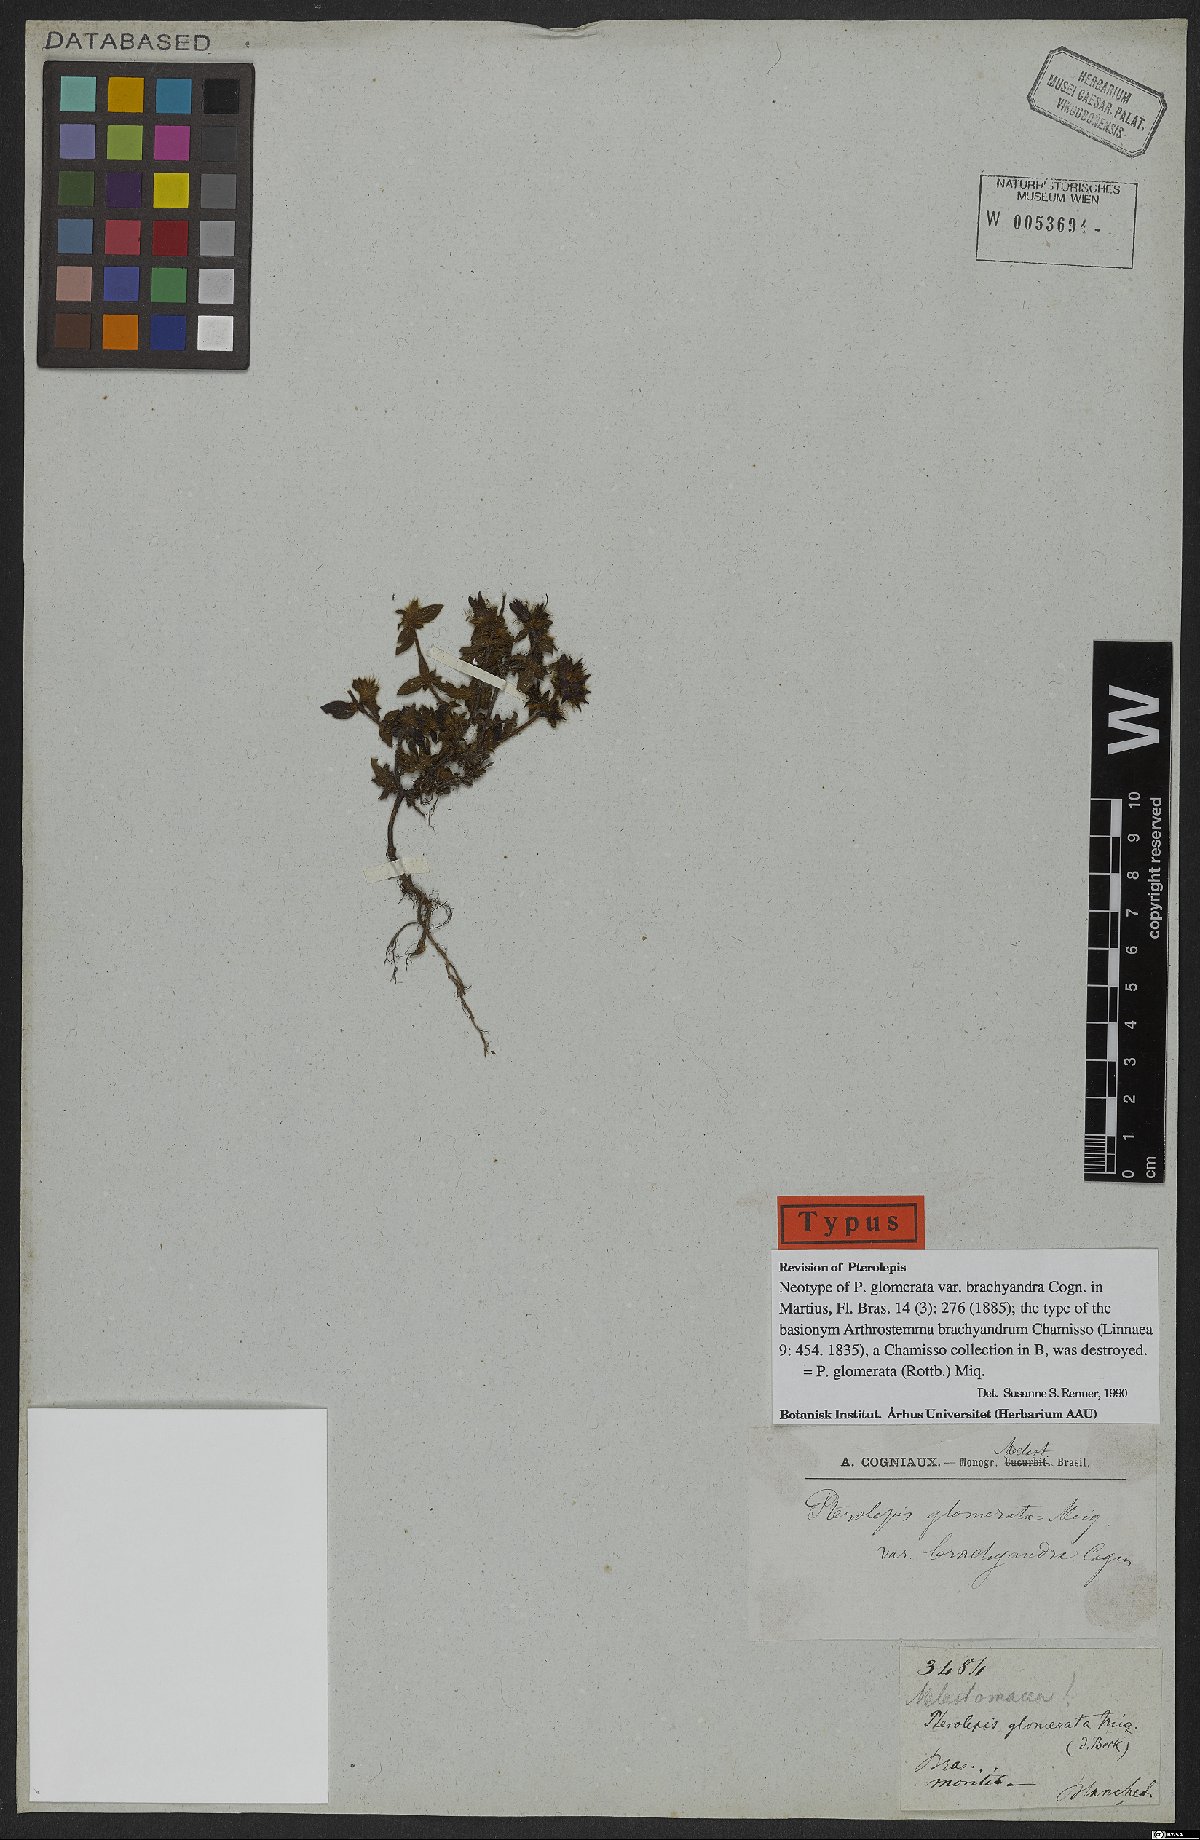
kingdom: Plantae
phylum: Tracheophyta
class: Magnoliopsida
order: Myrtales
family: Melastomataceae
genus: Pterolepis
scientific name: Pterolepis glomerata
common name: False meadowbeauty
